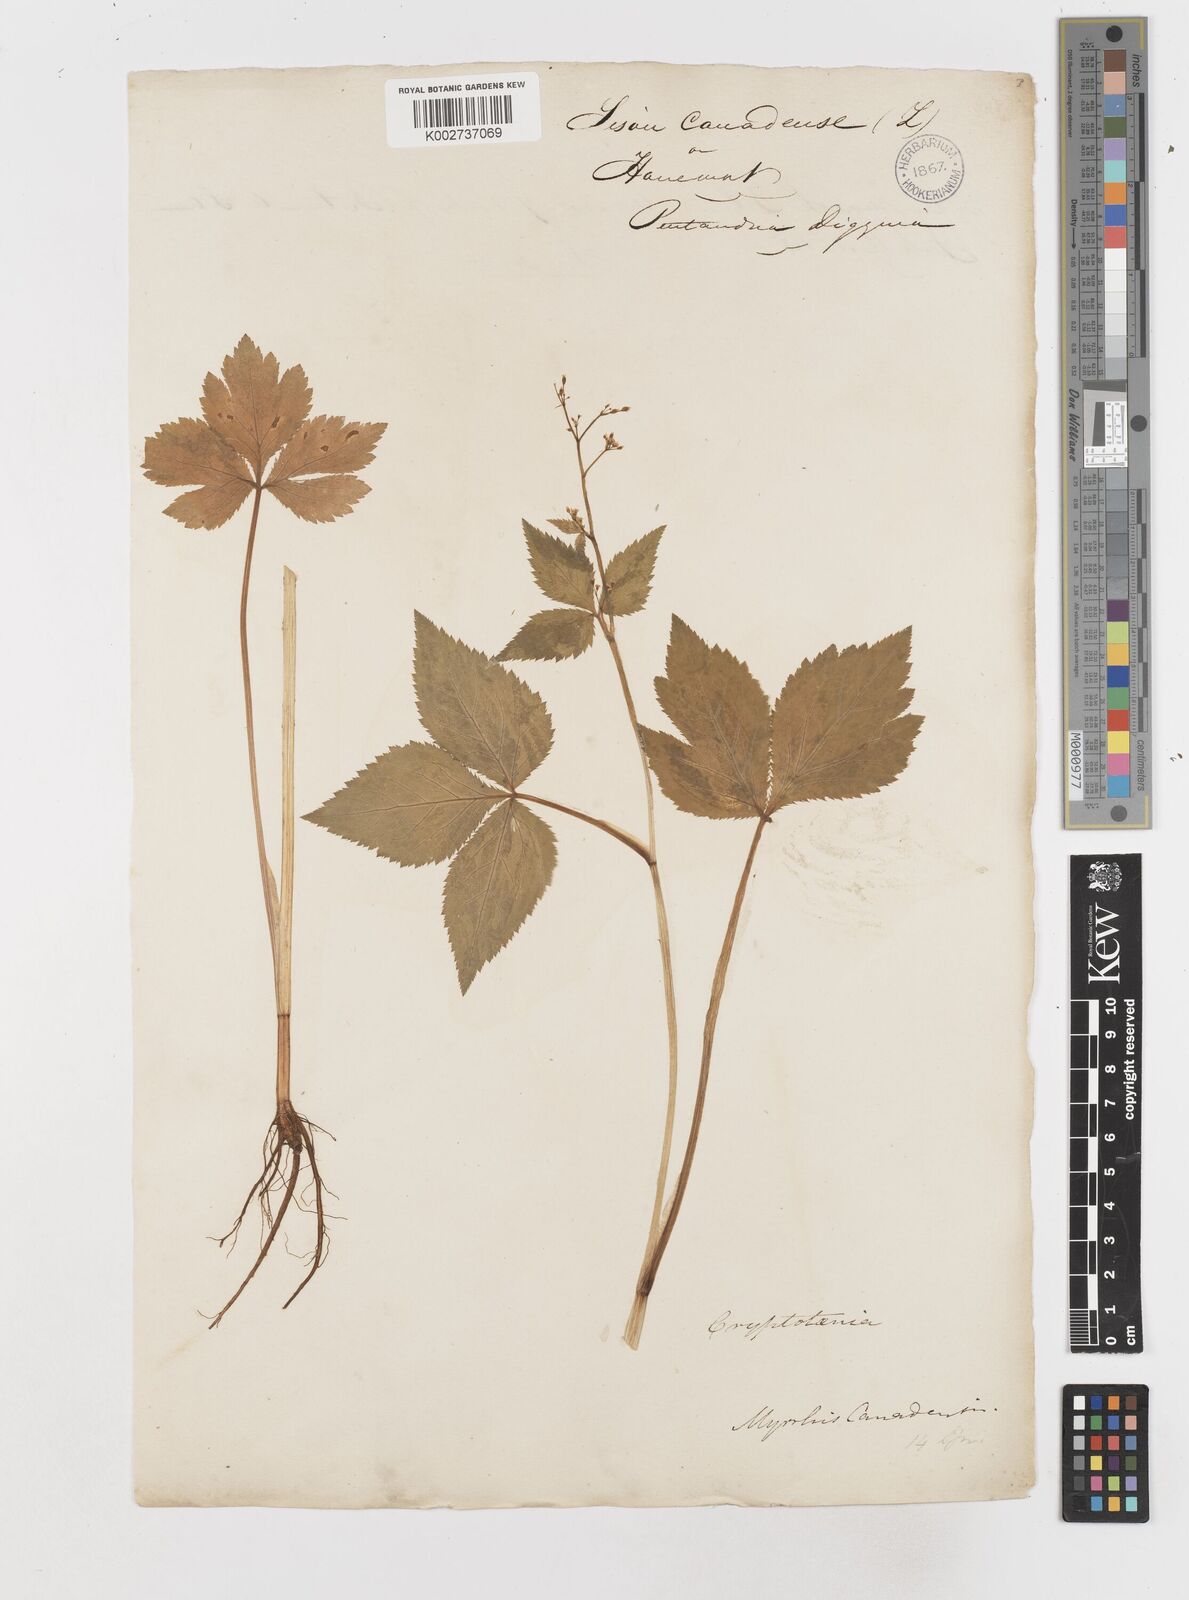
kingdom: Plantae
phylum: Tracheophyta
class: Magnoliopsida
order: Apiales
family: Apiaceae
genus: Cryptotaenia
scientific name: Cryptotaenia canadensis
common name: Honewort
